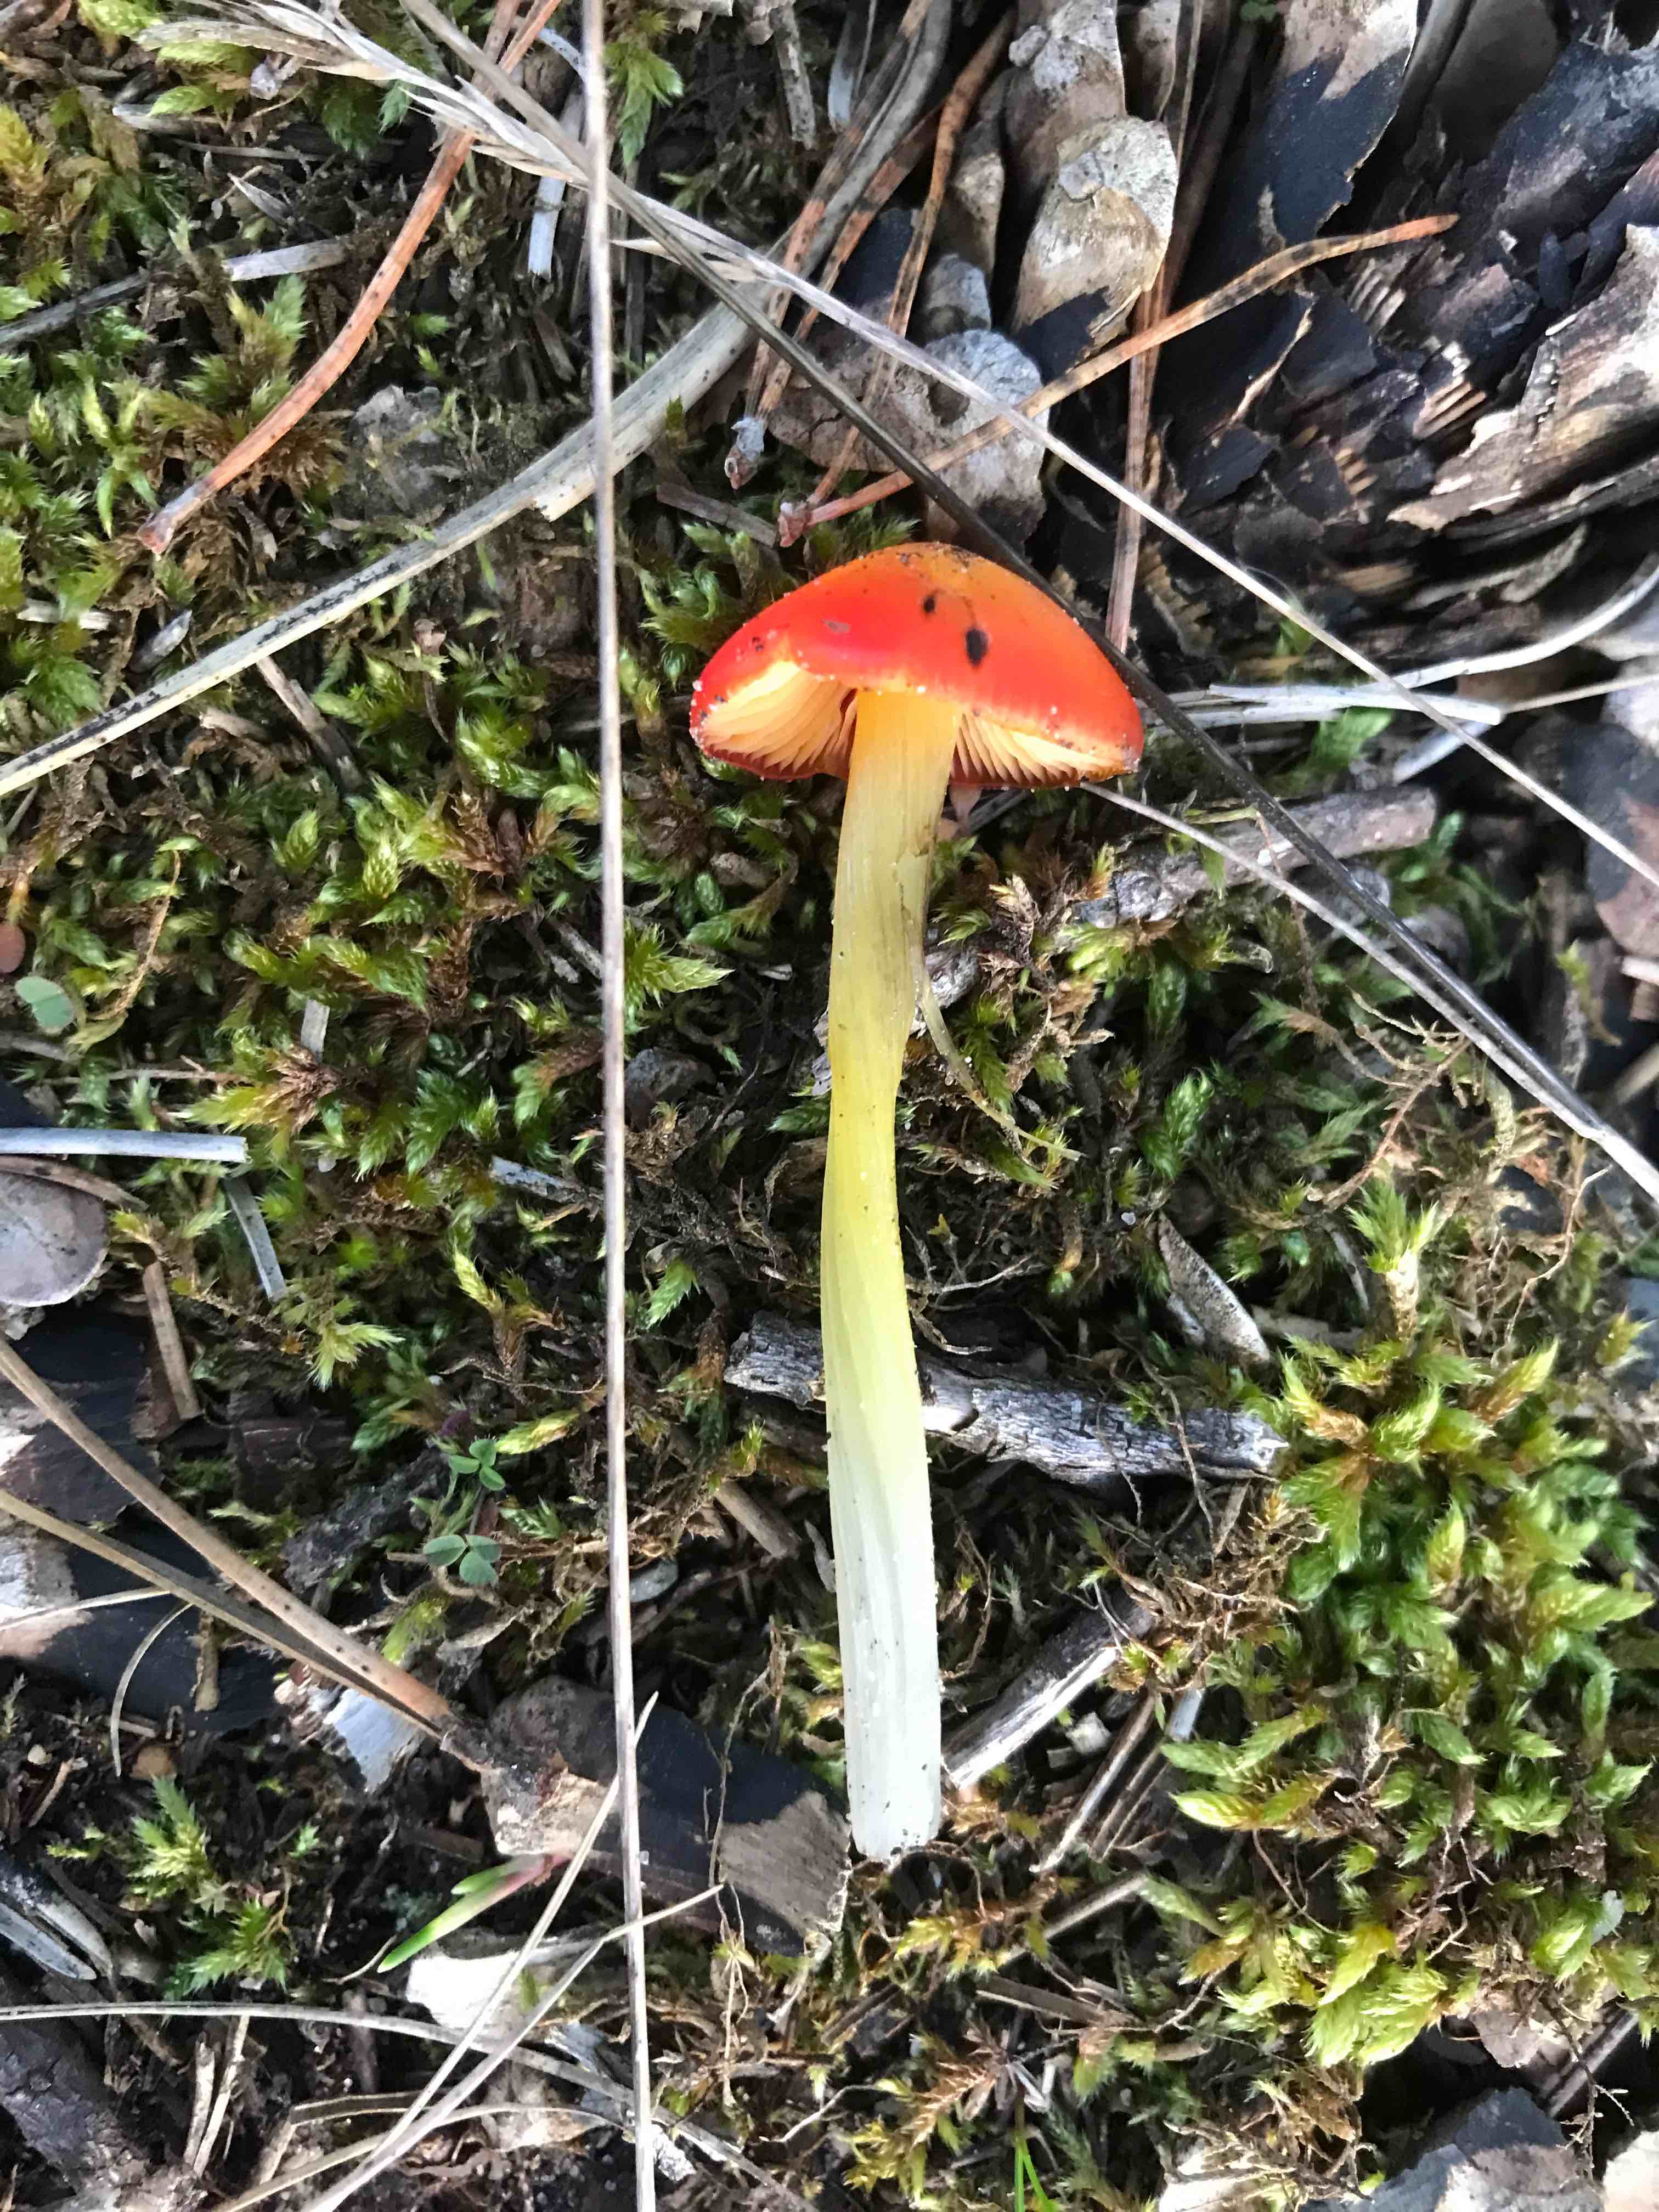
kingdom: Fungi
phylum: Basidiomycota
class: Agaricomycetes
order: Agaricales
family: Hygrophoraceae
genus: Hygrocybe
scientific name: Hygrocybe conica
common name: kegle-vokshat
